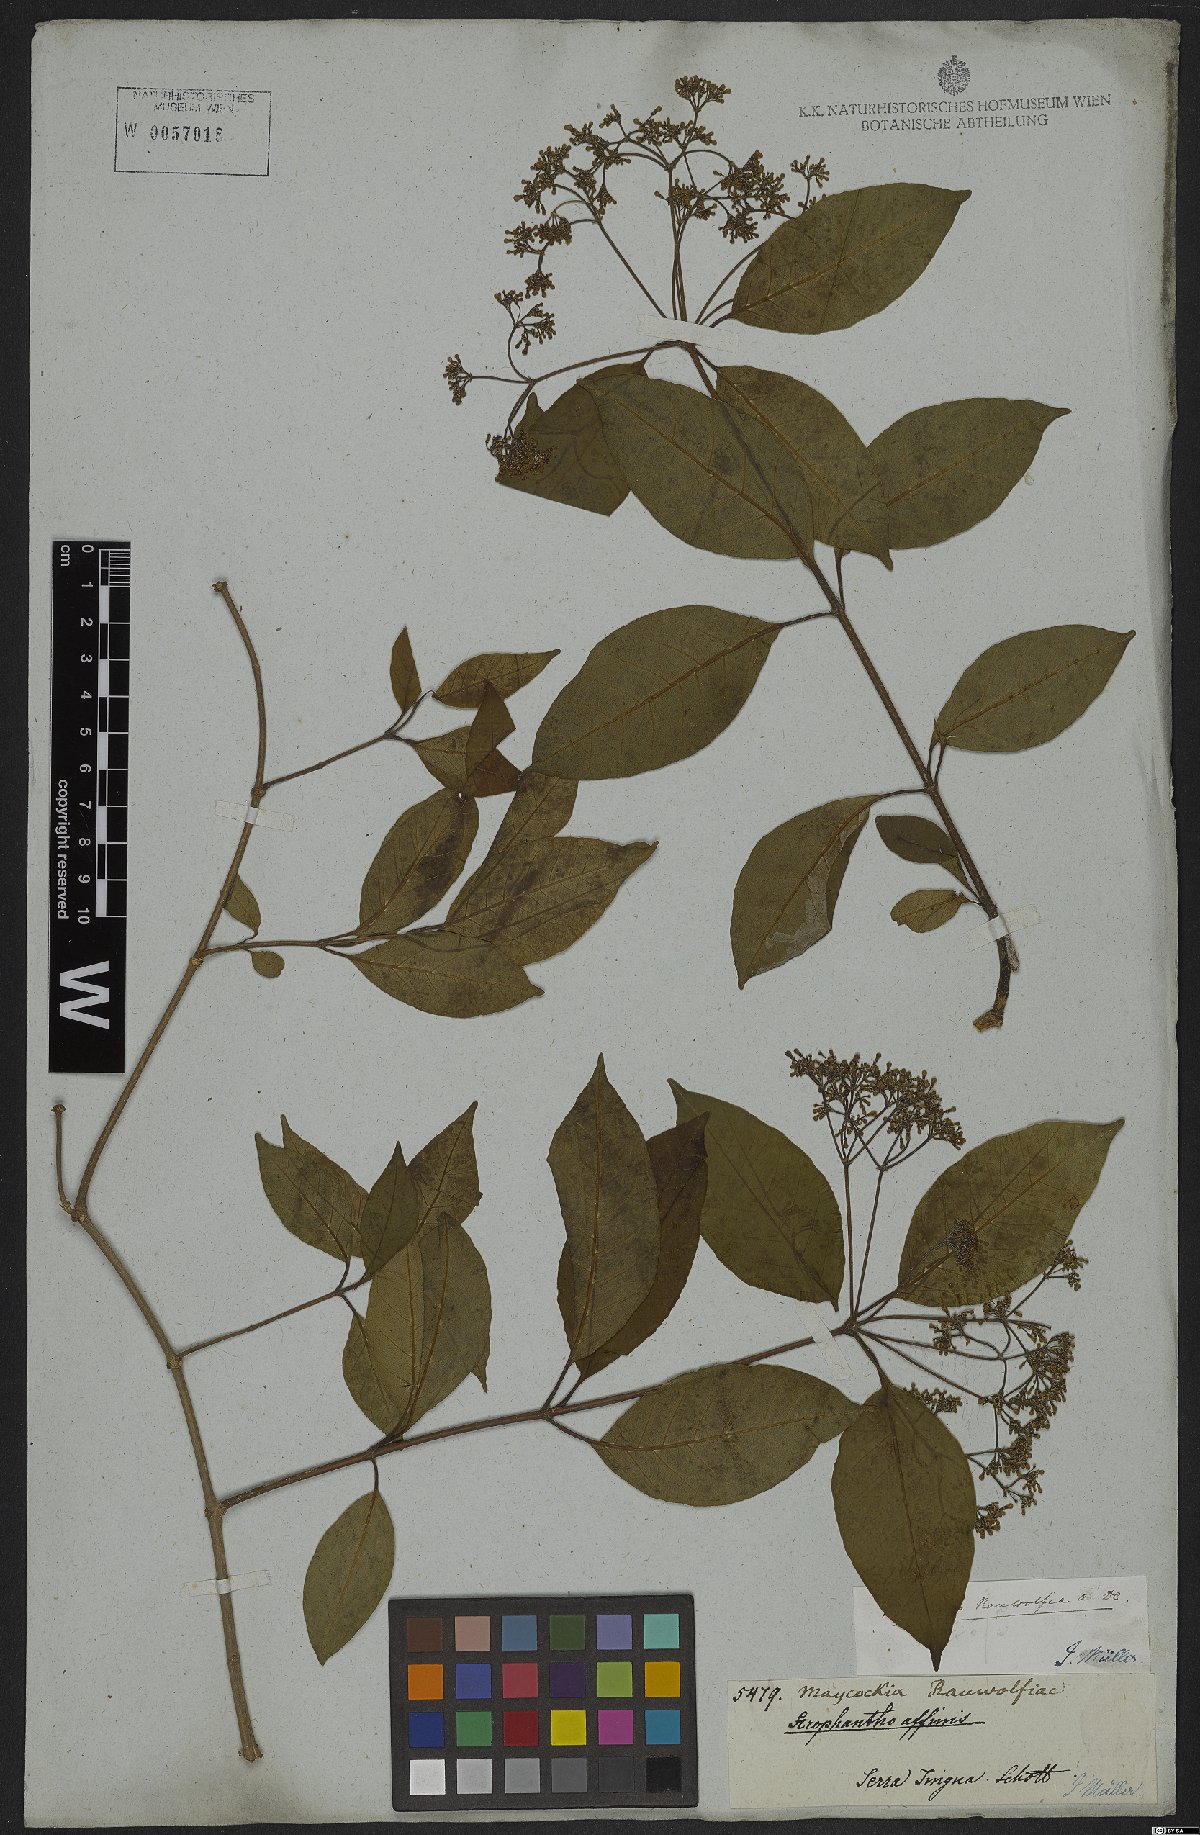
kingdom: Plantae
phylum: Tracheophyta
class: Magnoliopsida
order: Gentianales
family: Apocynaceae
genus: Condylocarpon
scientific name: Condylocarpon isthmicum
